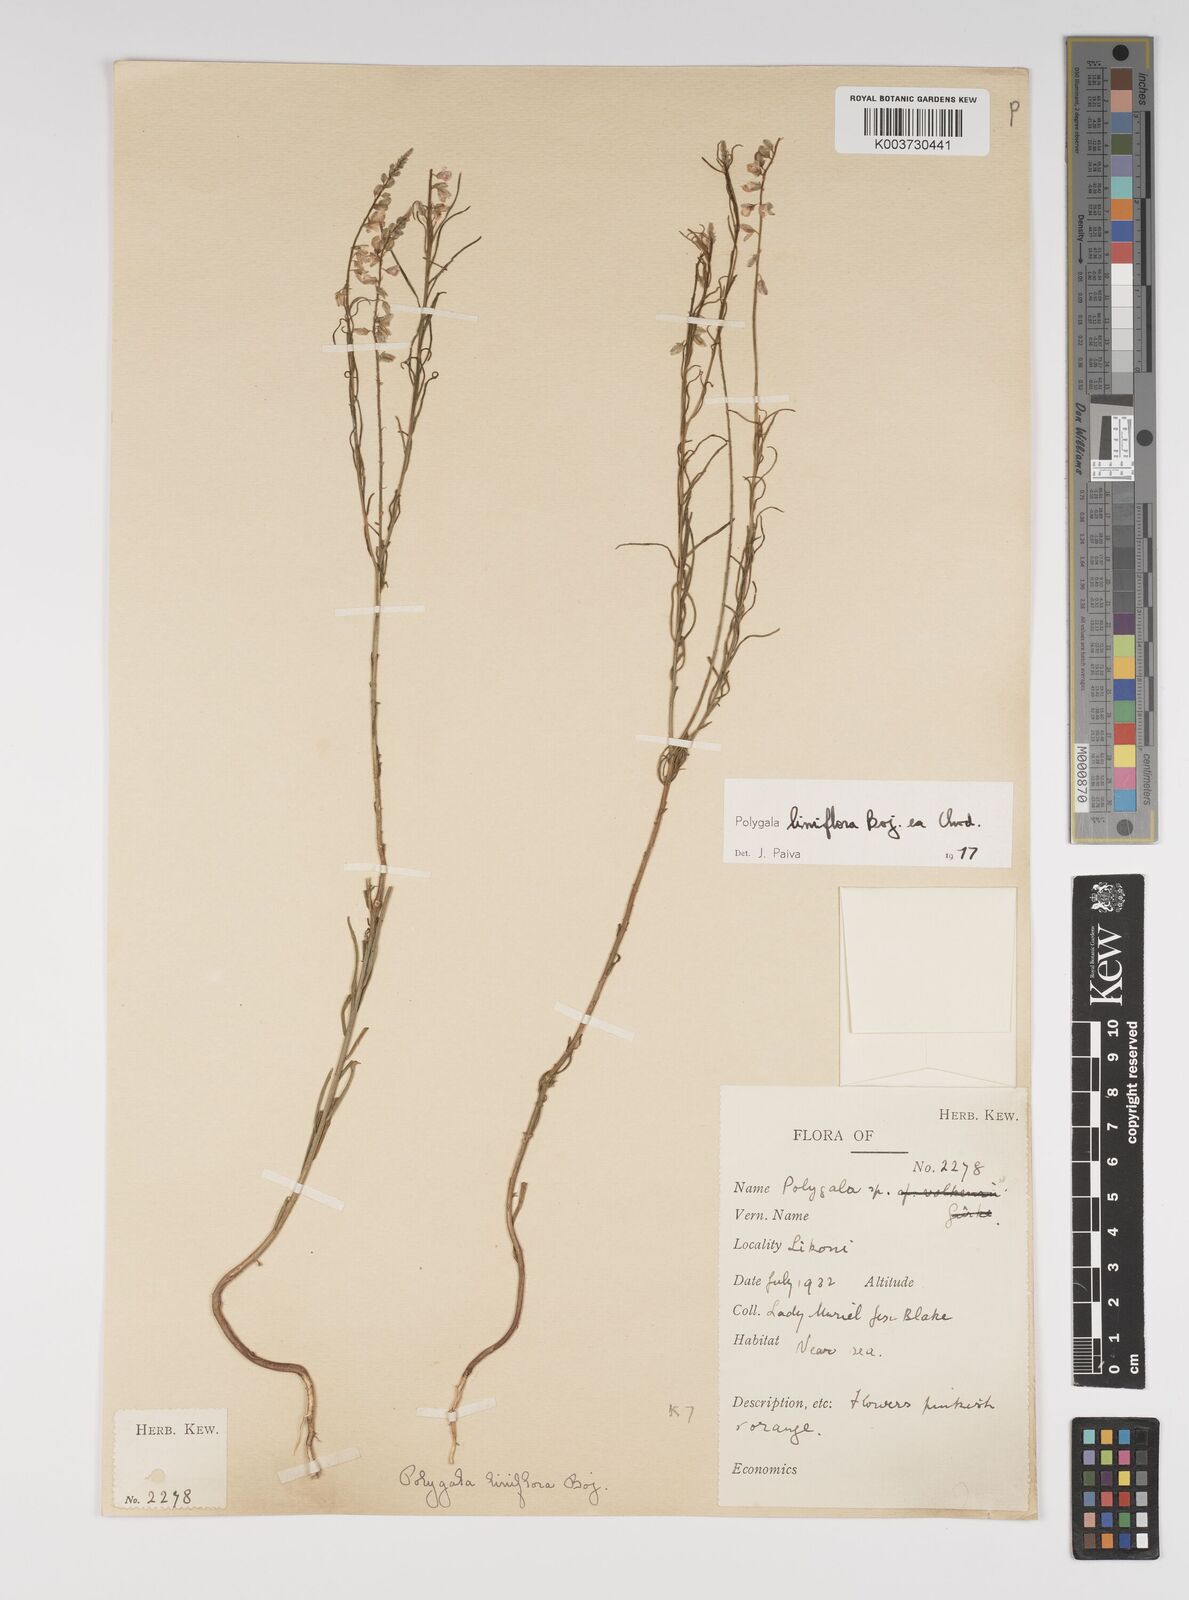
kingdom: Plantae
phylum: Tracheophyta
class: Magnoliopsida
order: Fabales
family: Polygalaceae
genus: Polygala
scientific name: Polygala conosperma
